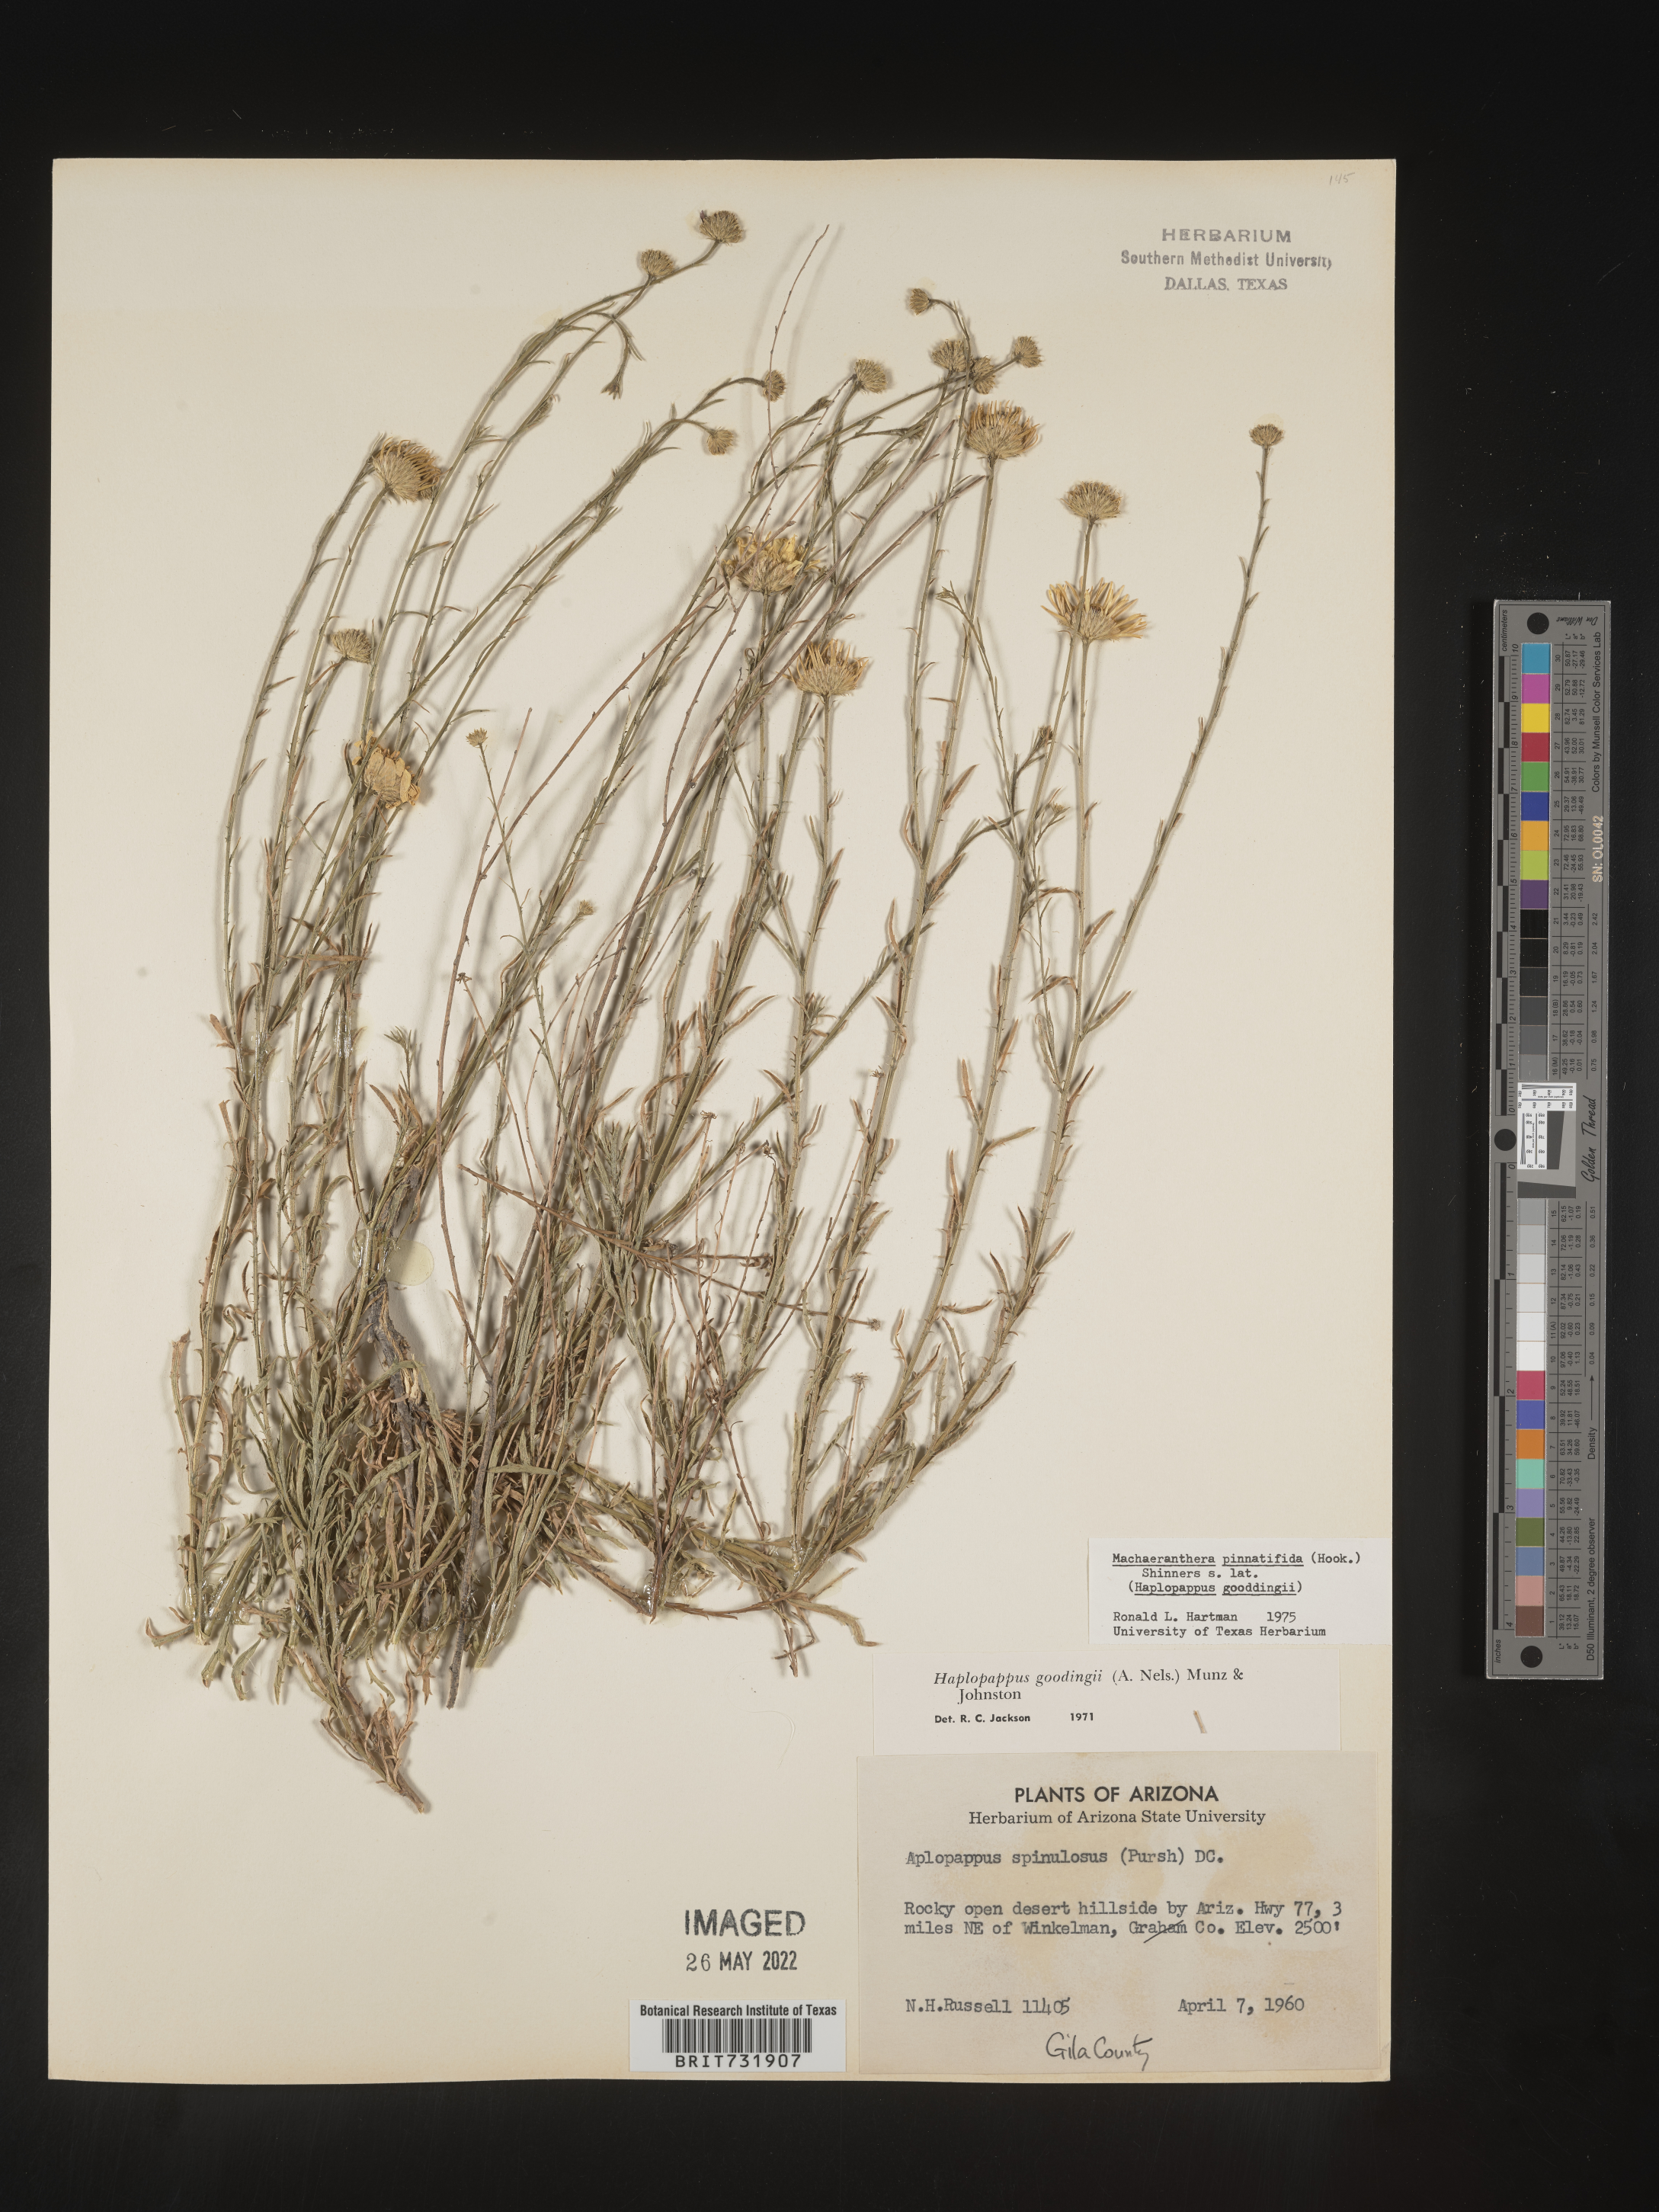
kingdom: Plantae
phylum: Tracheophyta
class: Magnoliopsida
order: Asterales
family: Asteraceae
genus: Xanthisma
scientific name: Xanthisma spinulosum
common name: Spiny goldenweed
